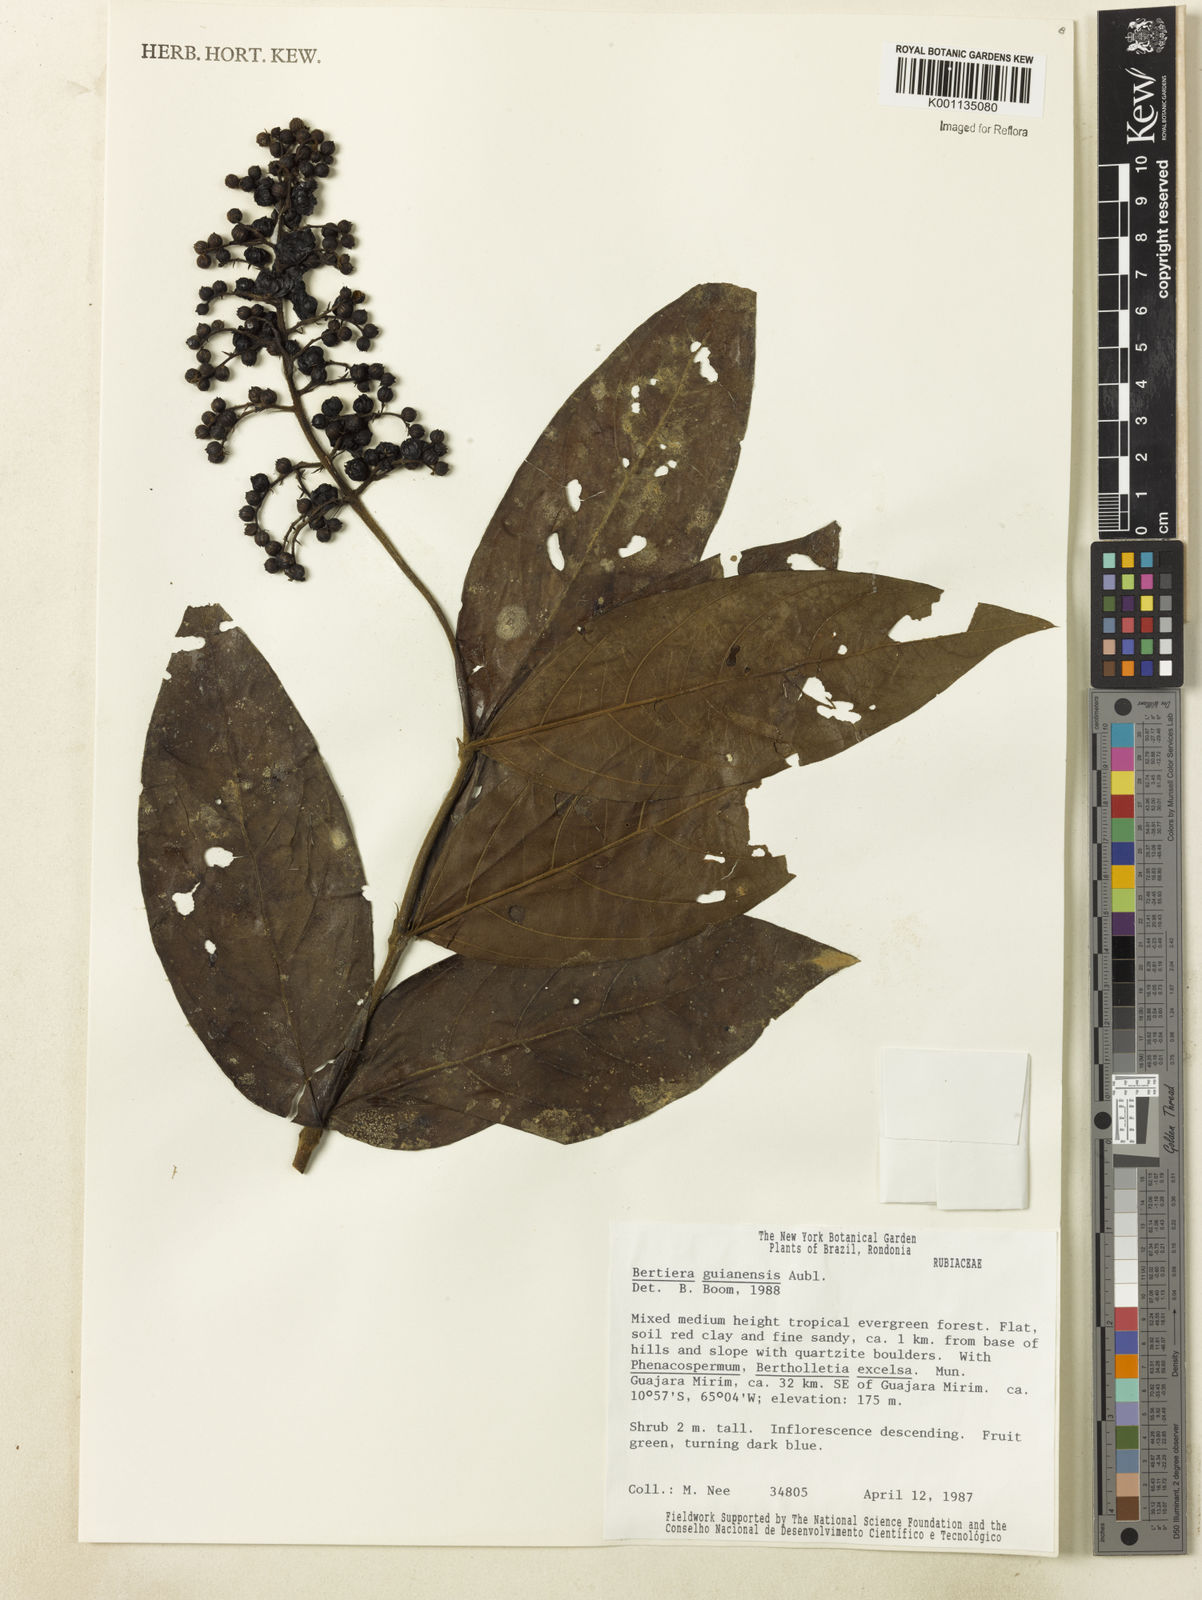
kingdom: Plantae
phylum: Tracheophyta
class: Magnoliopsida
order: Gentianales
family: Rubiaceae
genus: Bertiera
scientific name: Bertiera guianensis
